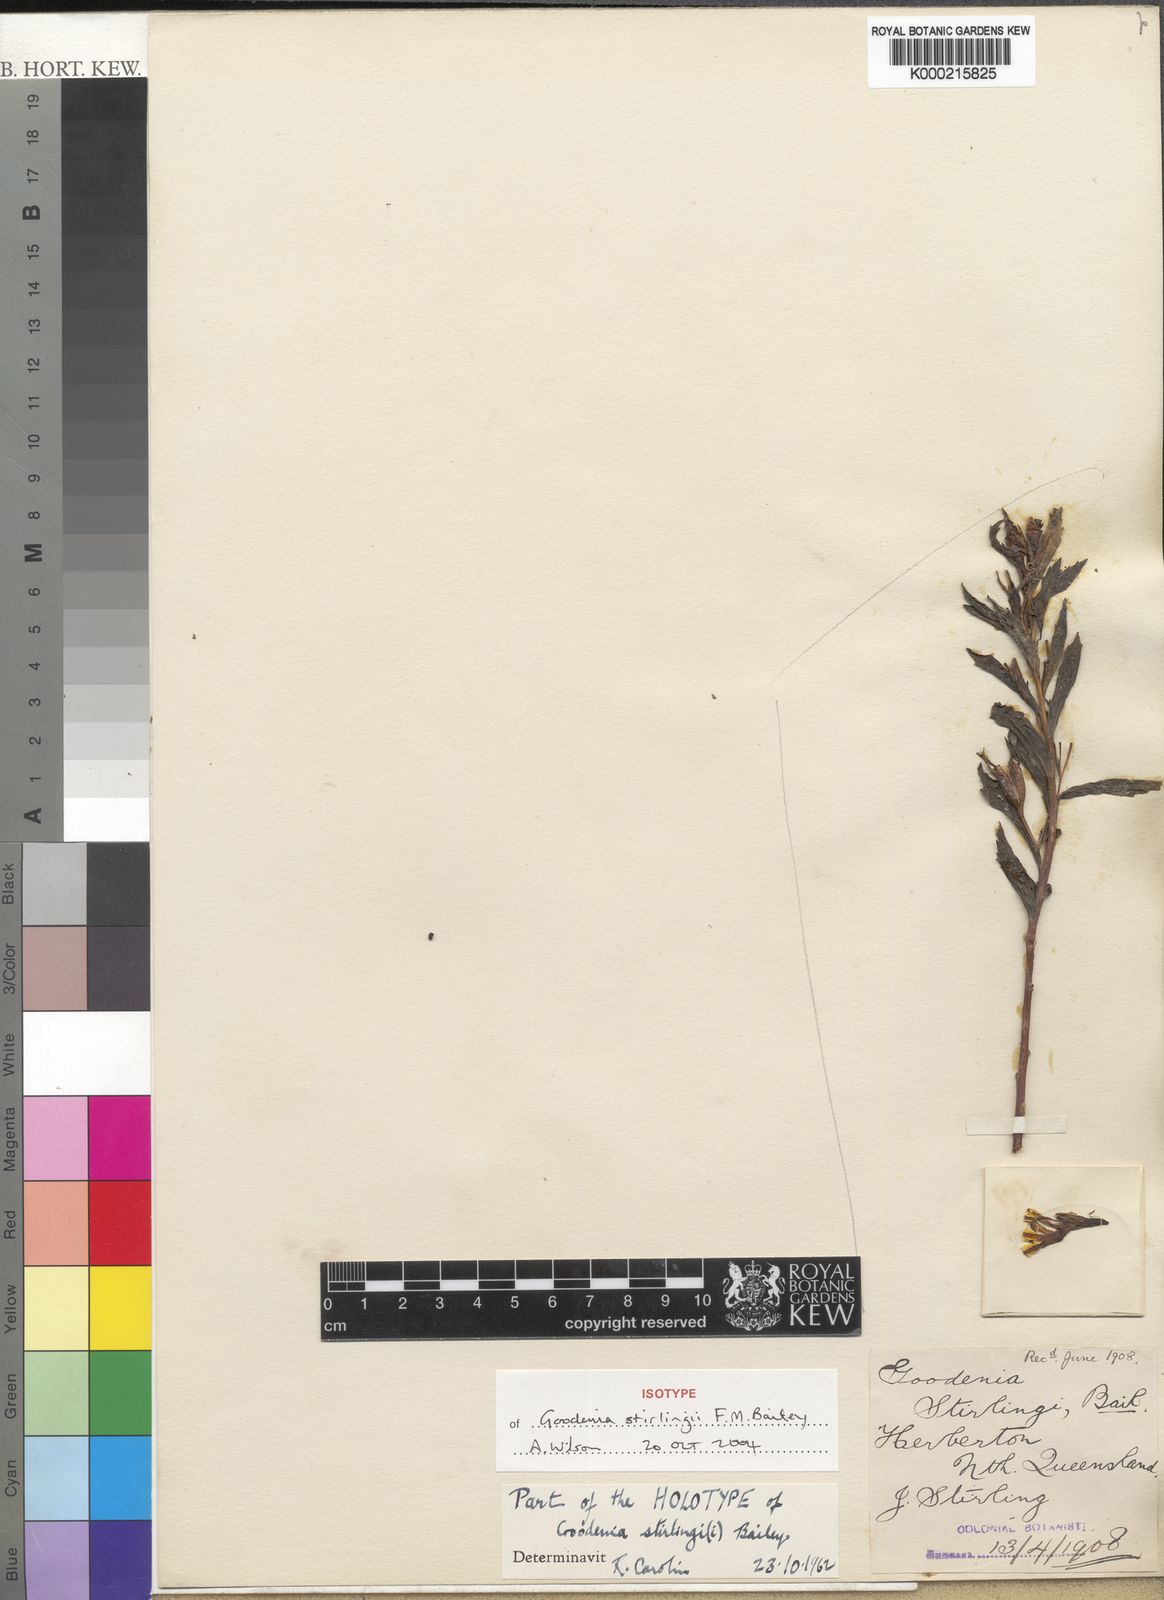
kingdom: Plantae
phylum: Tracheophyta
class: Magnoliopsida
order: Asterales
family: Goodeniaceae
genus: Goodenia
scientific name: Goodenia stirlingii
